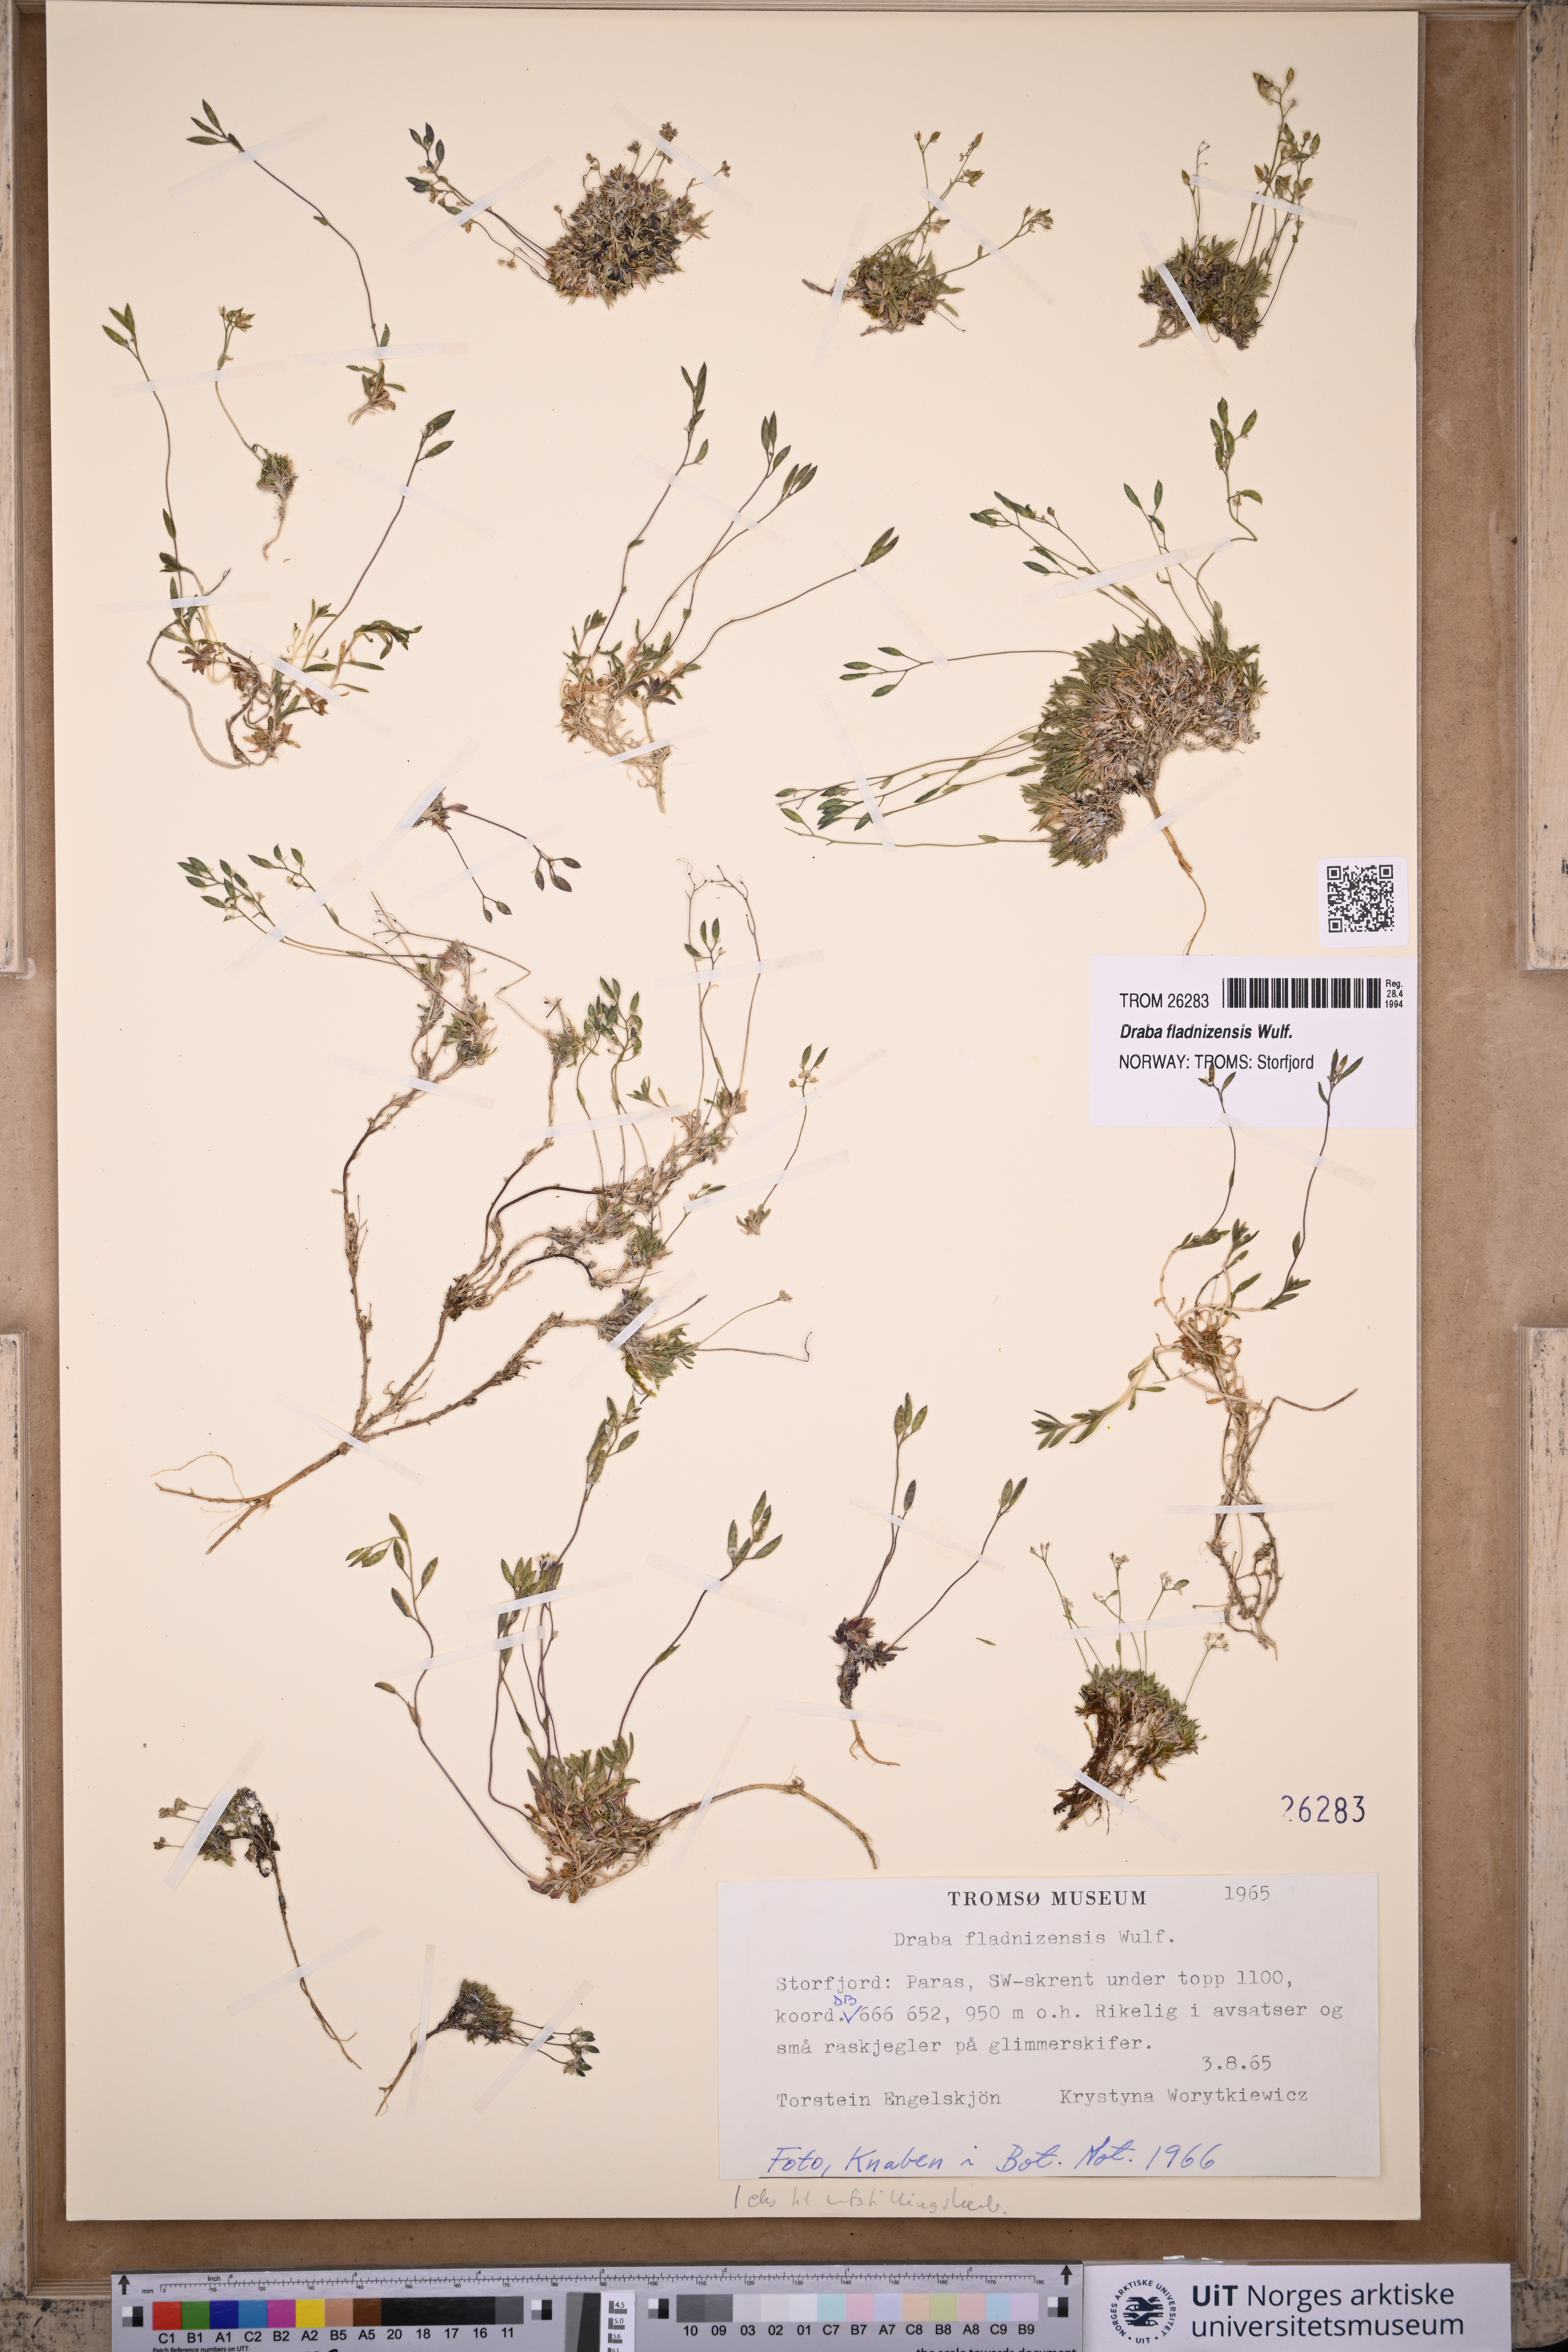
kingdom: Plantae
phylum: Tracheophyta
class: Magnoliopsida
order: Brassicales
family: Brassicaceae
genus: Draba
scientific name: Draba fladnizensis
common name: Austrian draba
